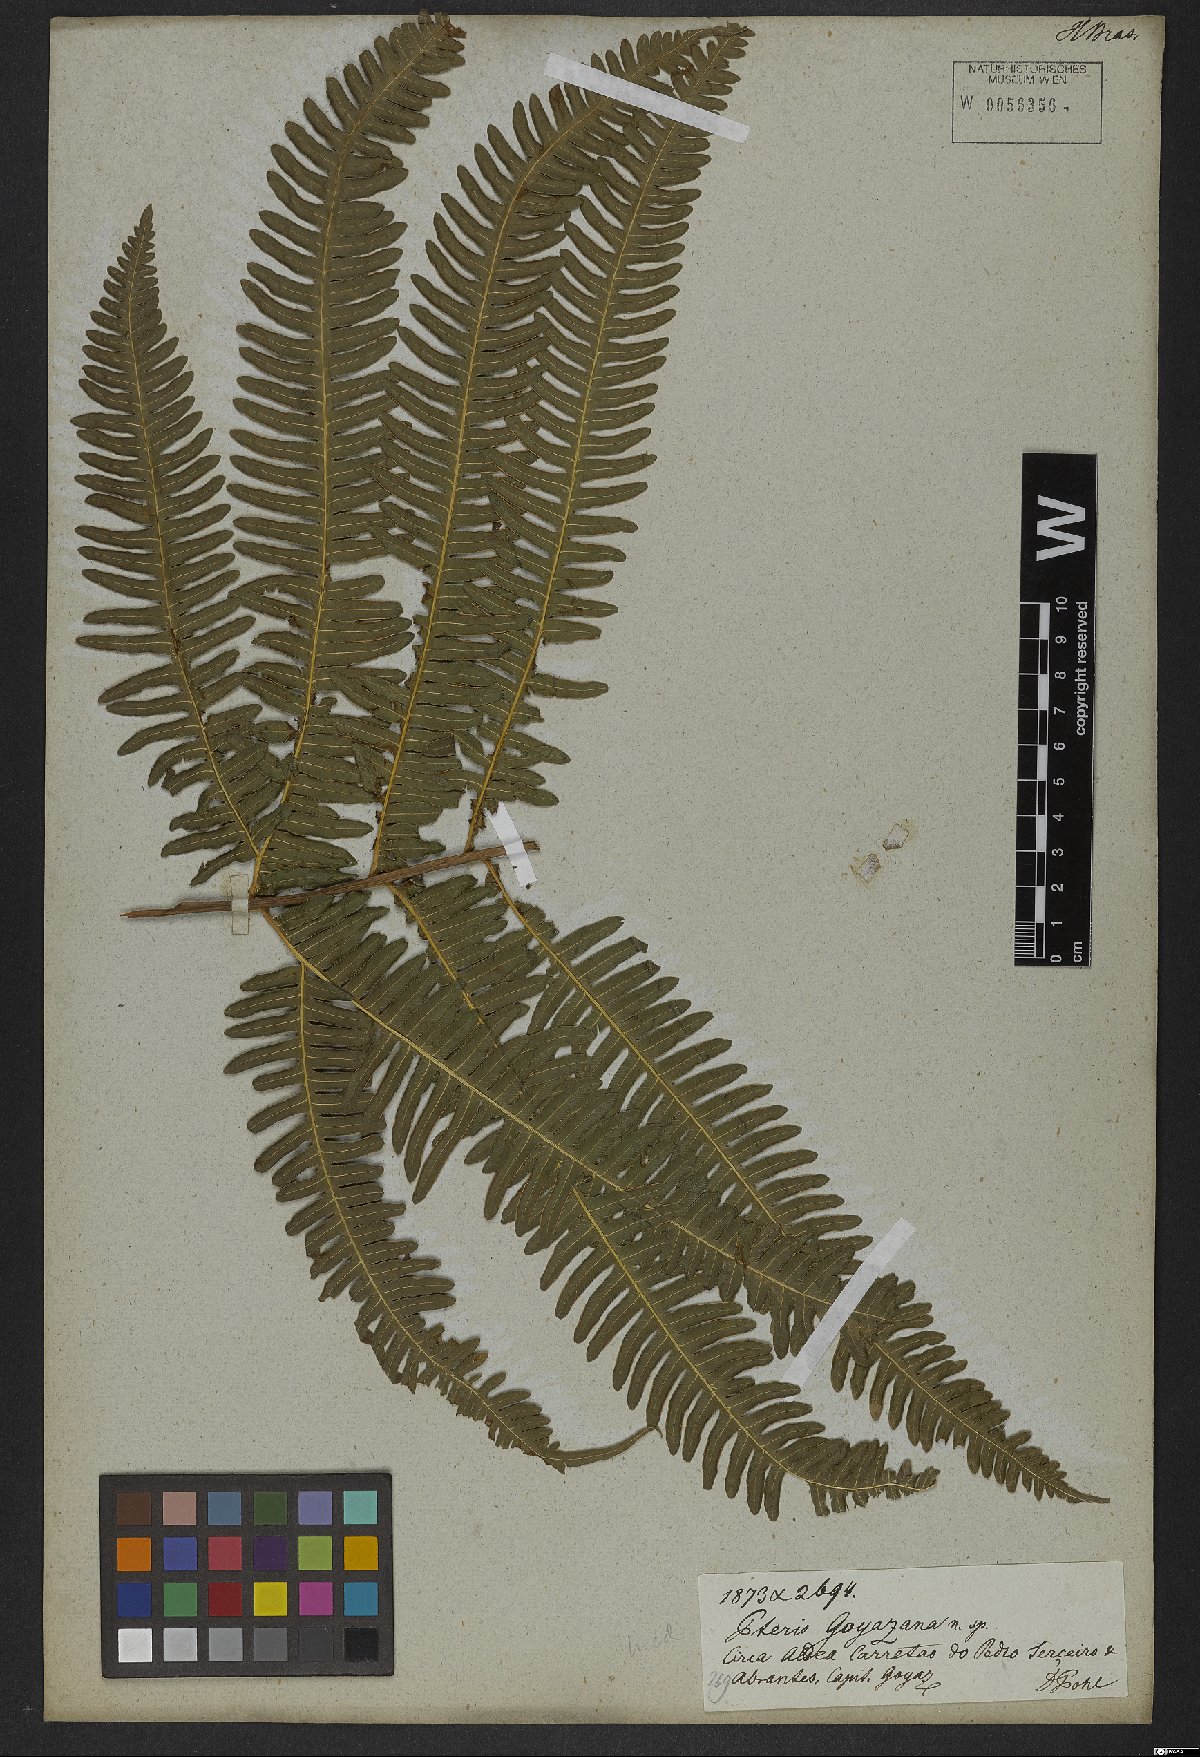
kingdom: Plantae
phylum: Tracheophyta
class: Polypodiopsida
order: Polypodiales
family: Pteridaceae
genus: Pteris
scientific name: Pteris denticulata
